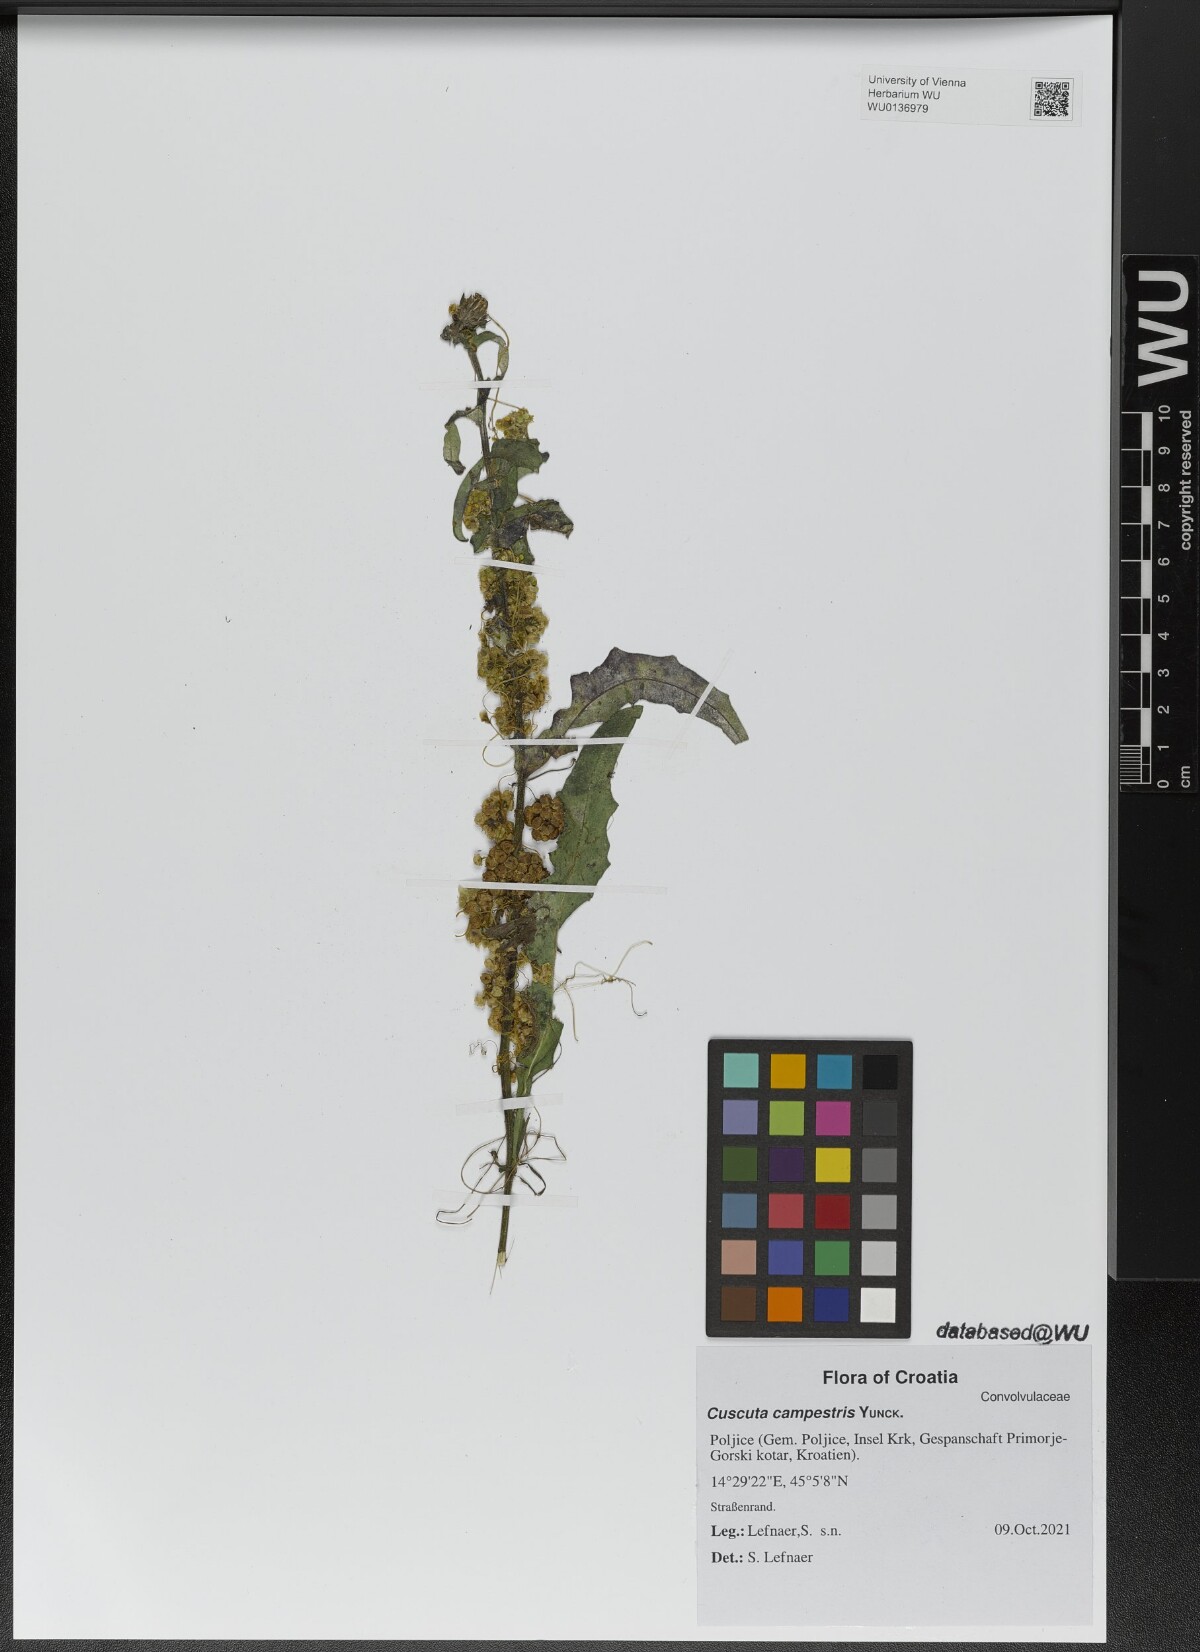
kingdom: Plantae
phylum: Tracheophyta
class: Magnoliopsida
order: Solanales
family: Convolvulaceae
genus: Cuscuta
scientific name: Cuscuta campestris
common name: Yellow dodder
